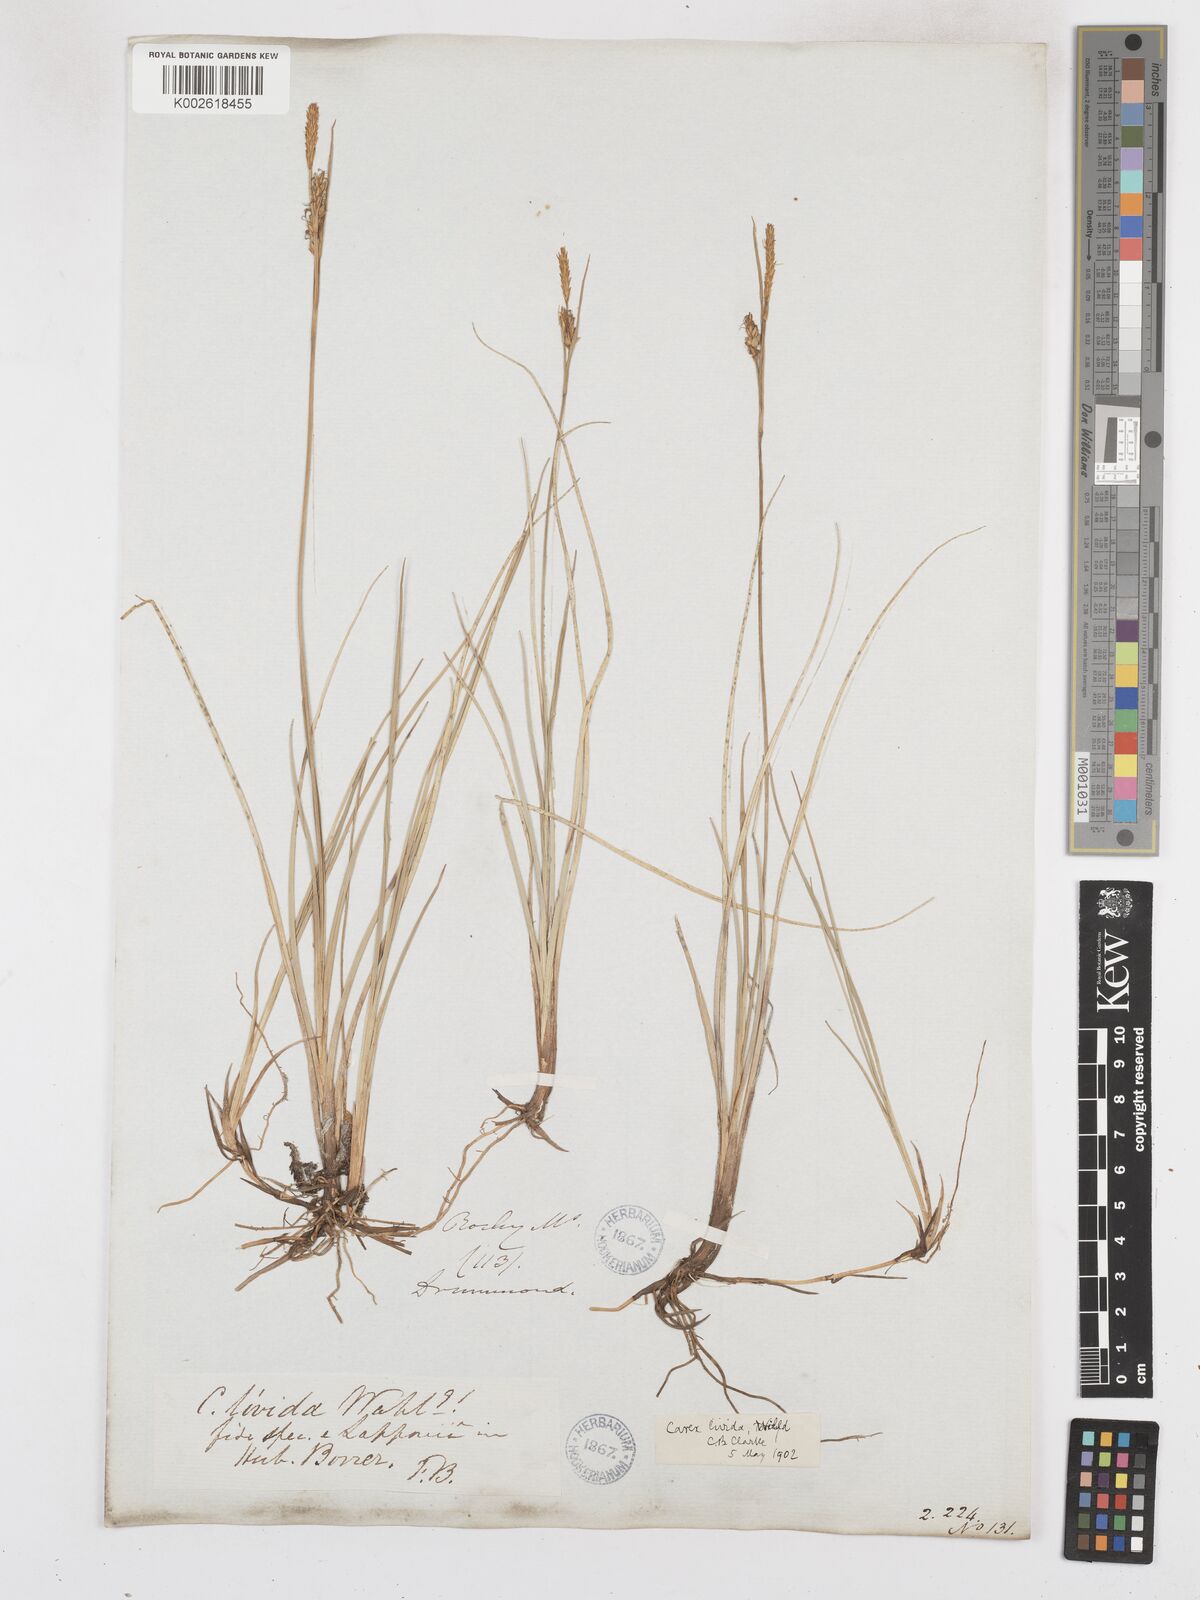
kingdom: Plantae
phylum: Tracheophyta
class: Liliopsida
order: Poales
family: Cyperaceae
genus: Carex
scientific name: Carex livida
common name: Livid sedge
